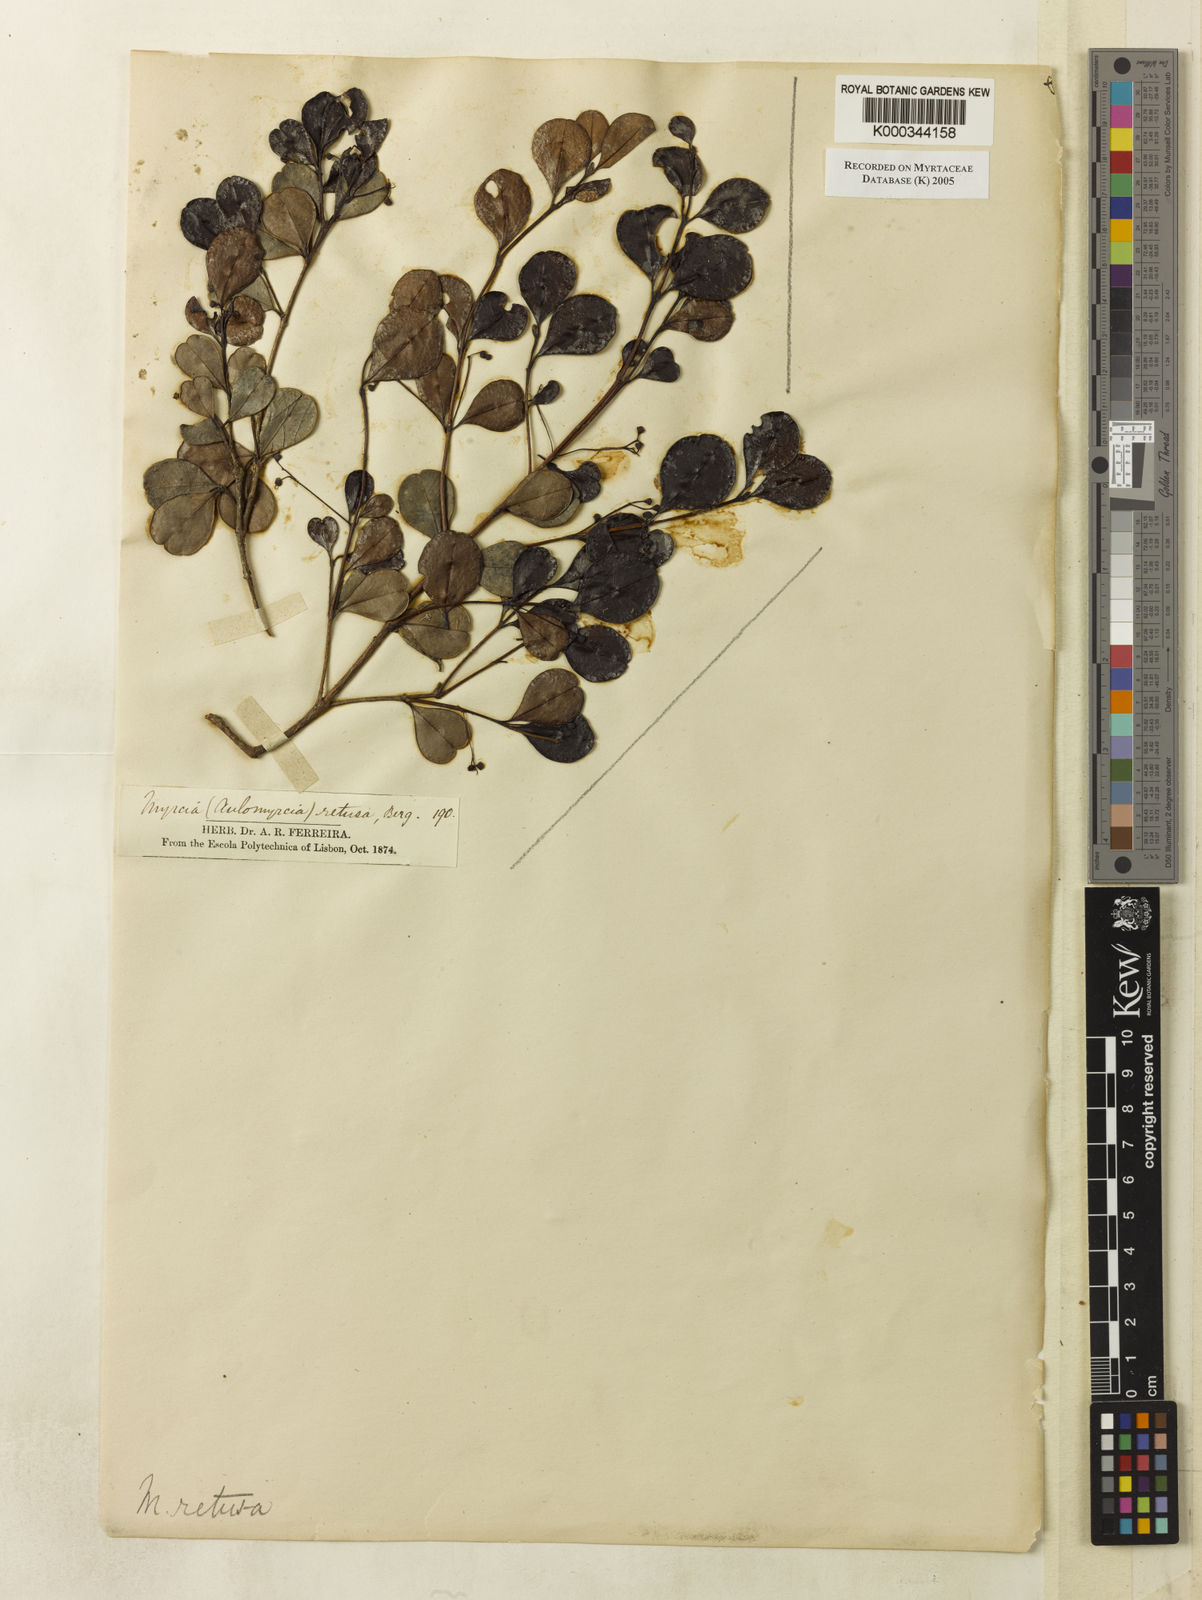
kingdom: Plantae
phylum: Tracheophyta
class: Magnoliopsida
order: Myrtales
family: Myrtaceae
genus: Myrcia
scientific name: Myrcia guianensis
